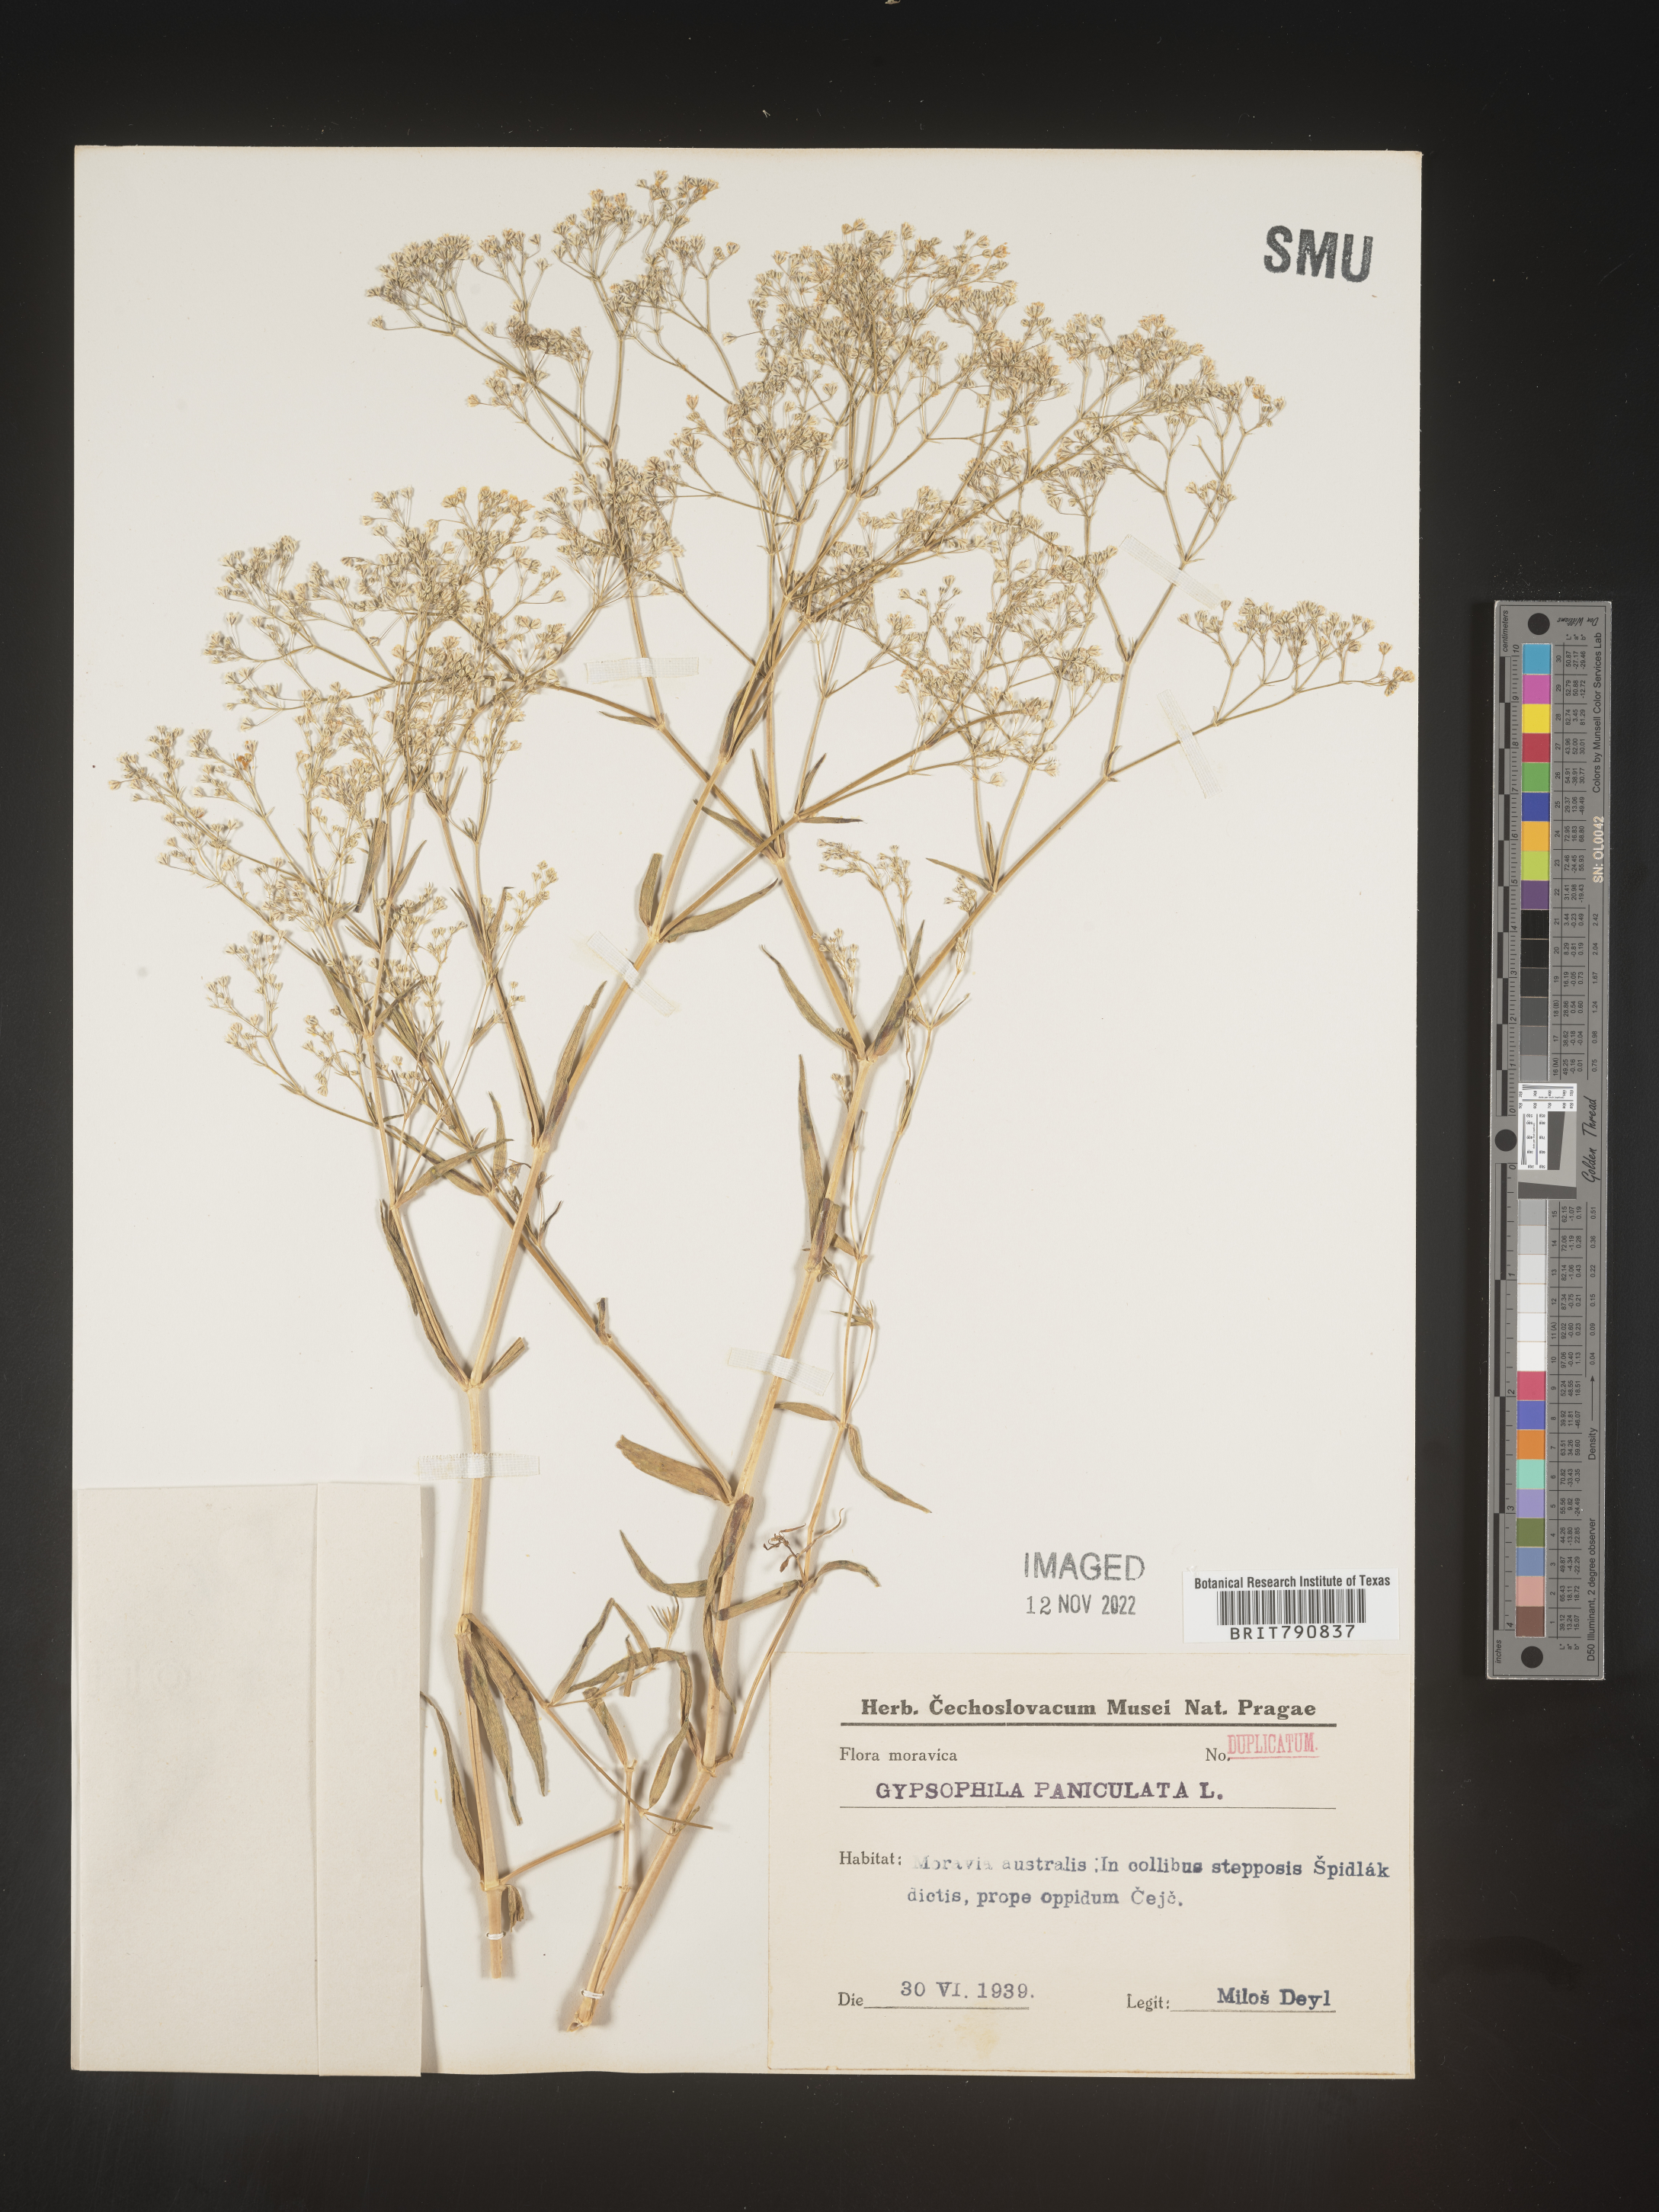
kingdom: Plantae
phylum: Tracheophyta
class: Magnoliopsida
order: Caryophyllales
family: Caryophyllaceae
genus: Gypsophila
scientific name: Gypsophila
